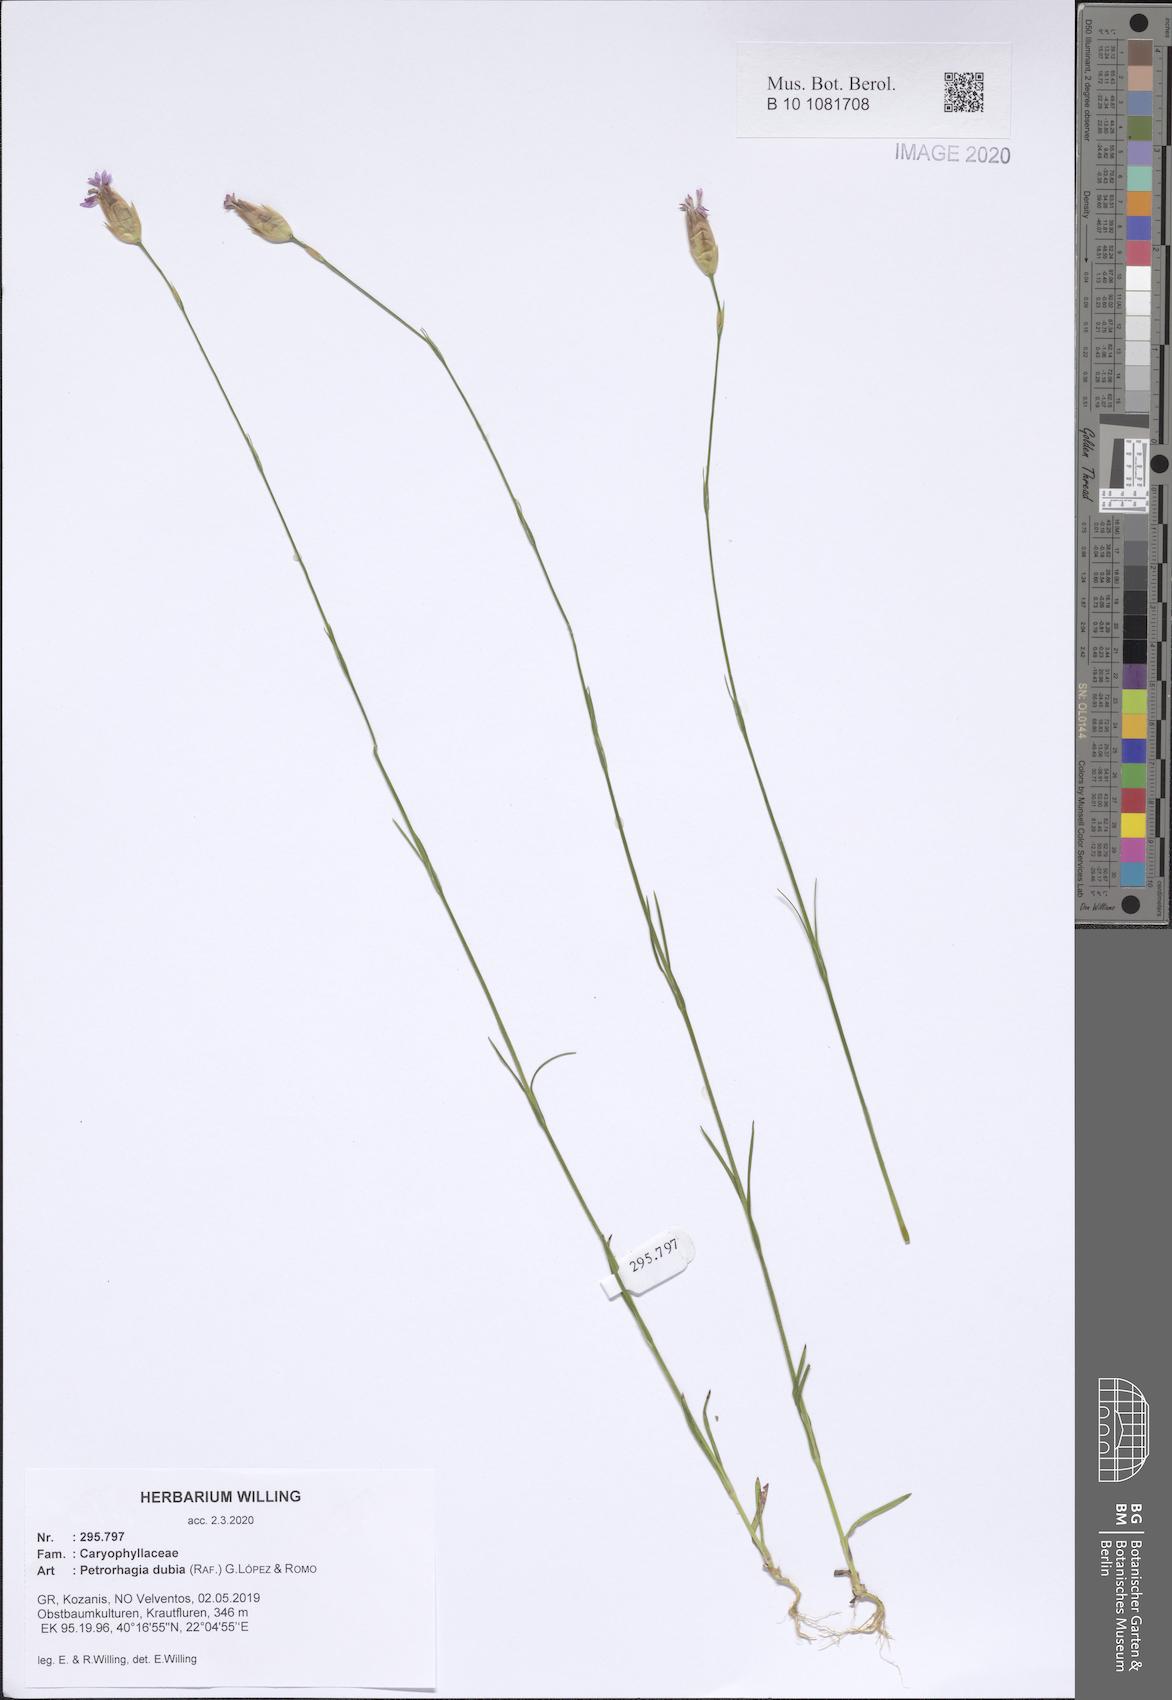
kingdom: Plantae
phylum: Tracheophyta
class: Magnoliopsida
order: Caryophyllales
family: Caryophyllaceae
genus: Petrorhagia
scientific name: Petrorhagia dubia
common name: Hairypink
